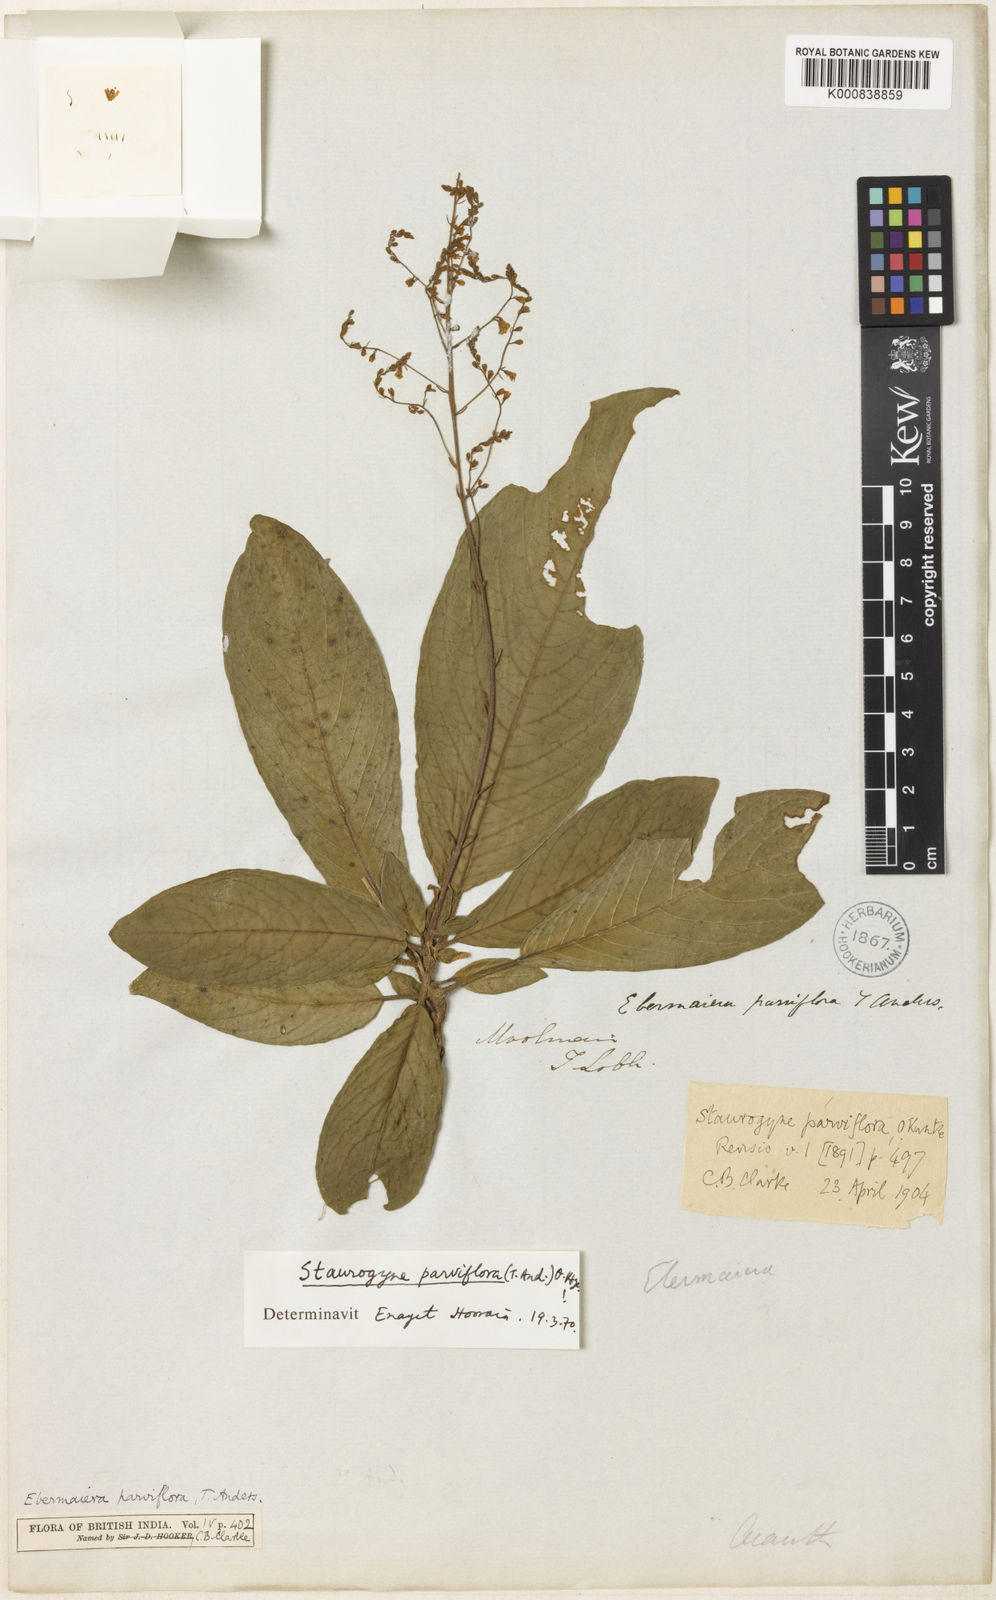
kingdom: Plantae
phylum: Tracheophyta
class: Magnoliopsida
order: Lamiales
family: Acanthaceae
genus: Staurogyne
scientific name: Staurogyne parviflora
